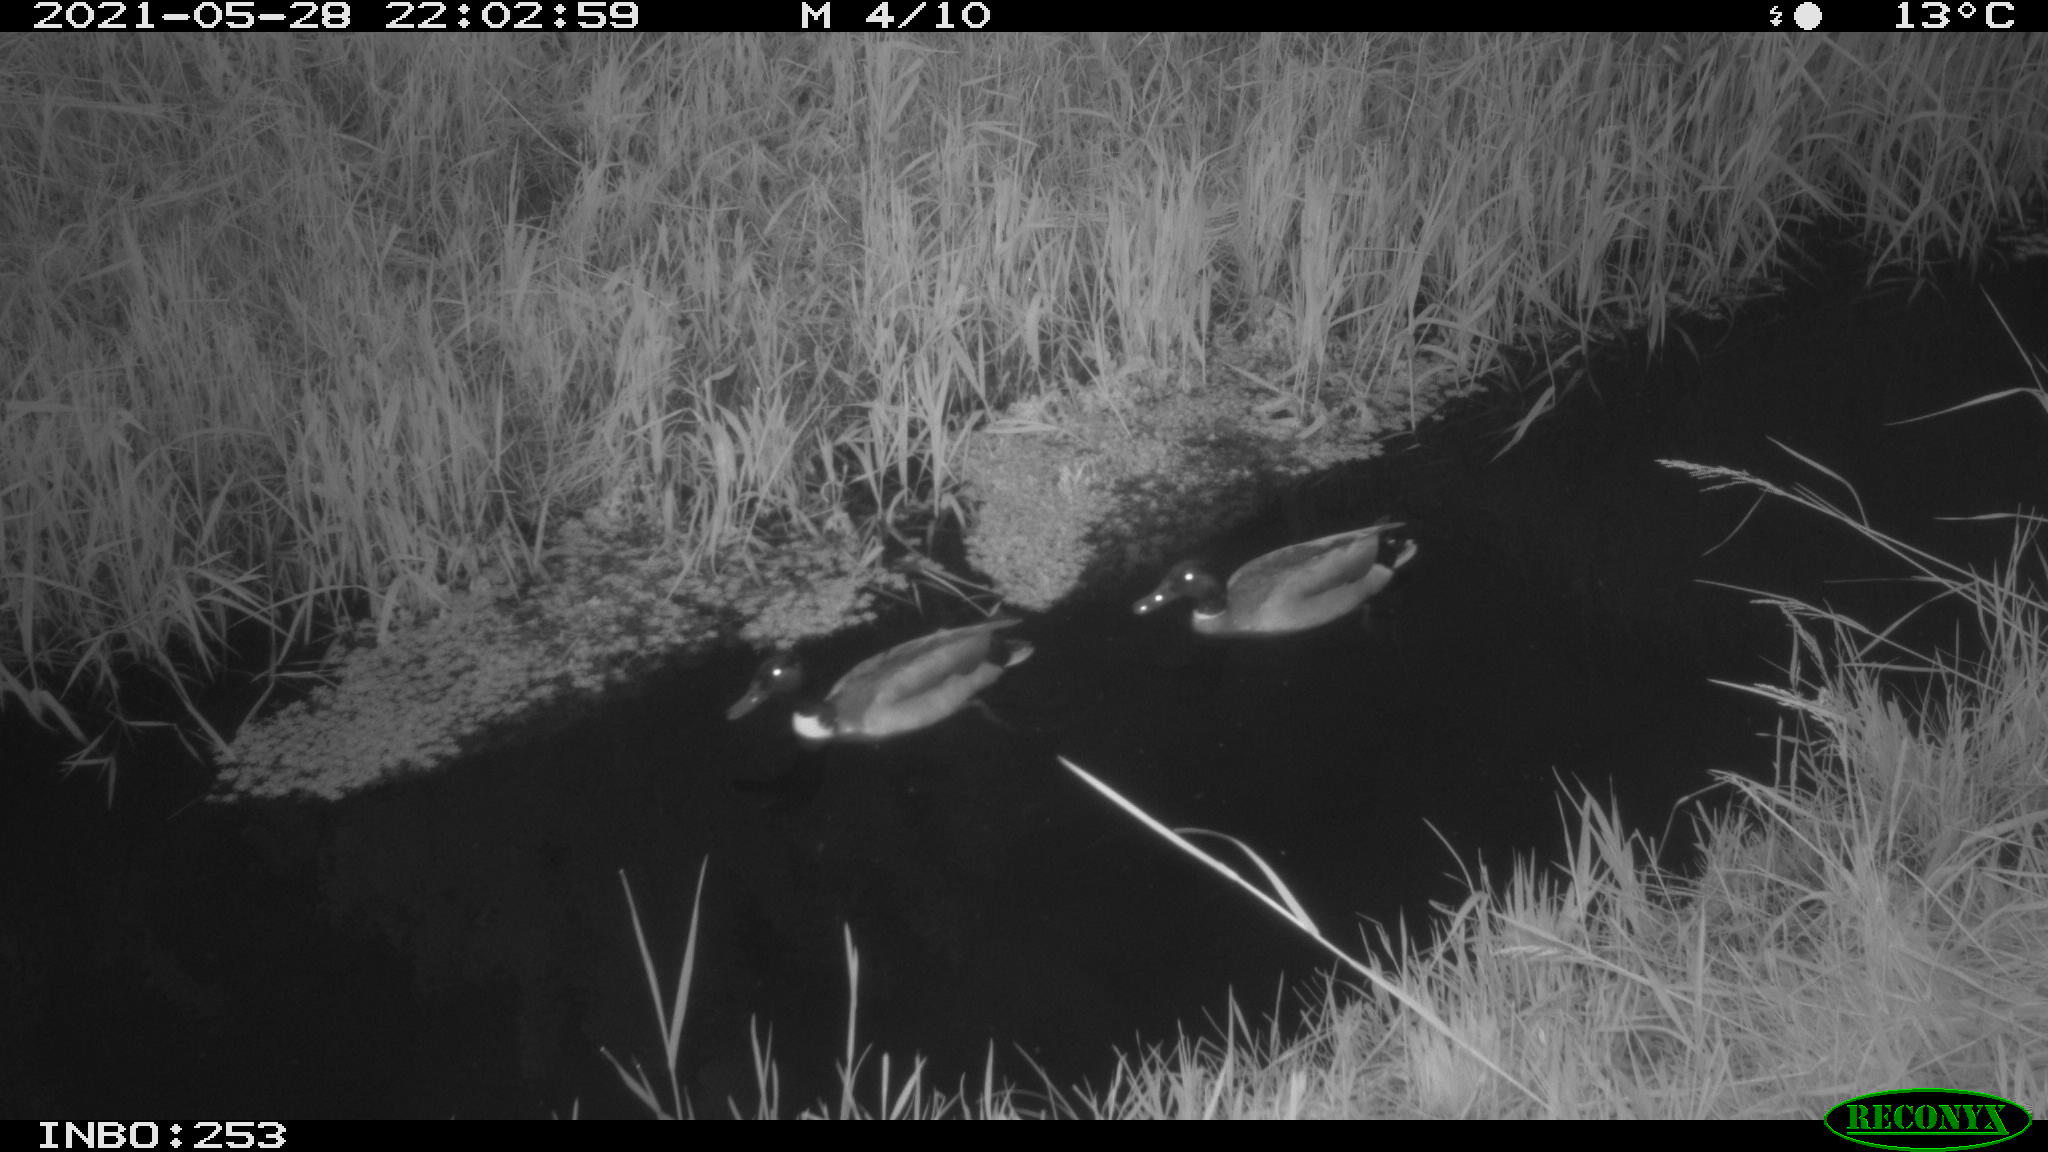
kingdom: Animalia
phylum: Chordata
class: Aves
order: Anseriformes
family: Anatidae
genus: Anas
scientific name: Anas
